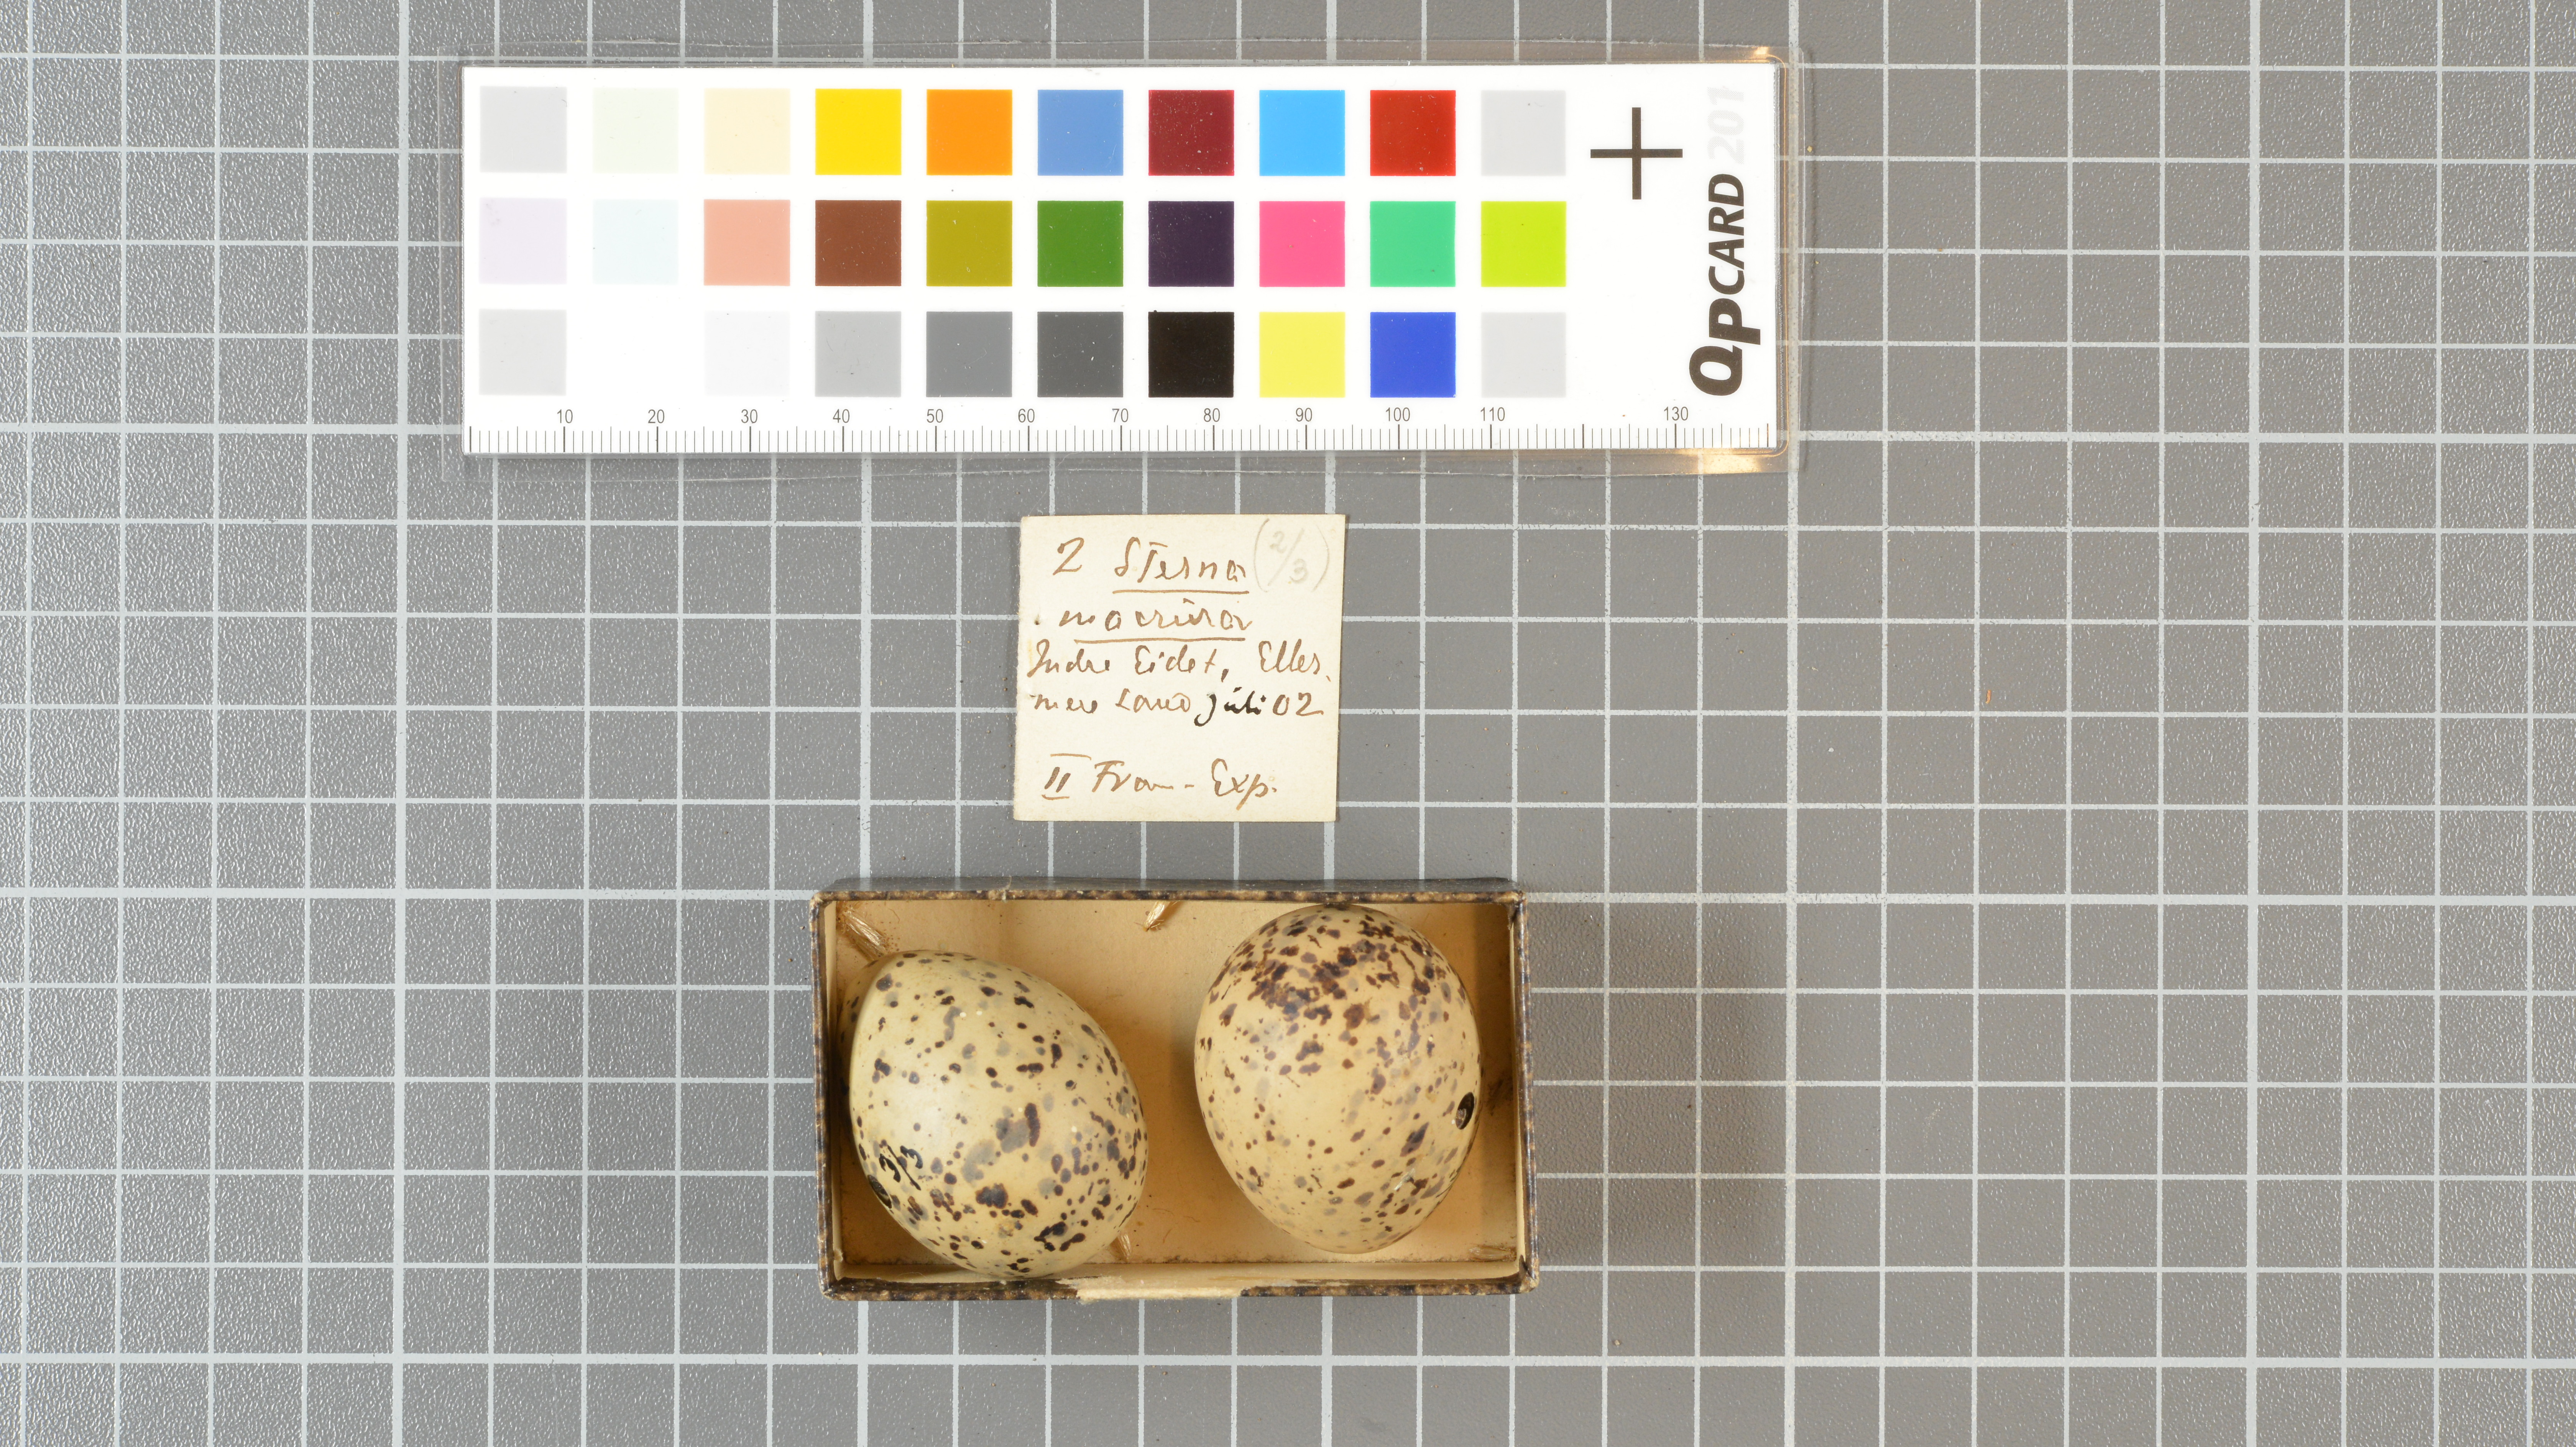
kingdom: Animalia
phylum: Chordata
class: Aves
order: Charadriiformes
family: Laridae
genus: Sterna
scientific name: Sterna paradisaea
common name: Arctic tern
